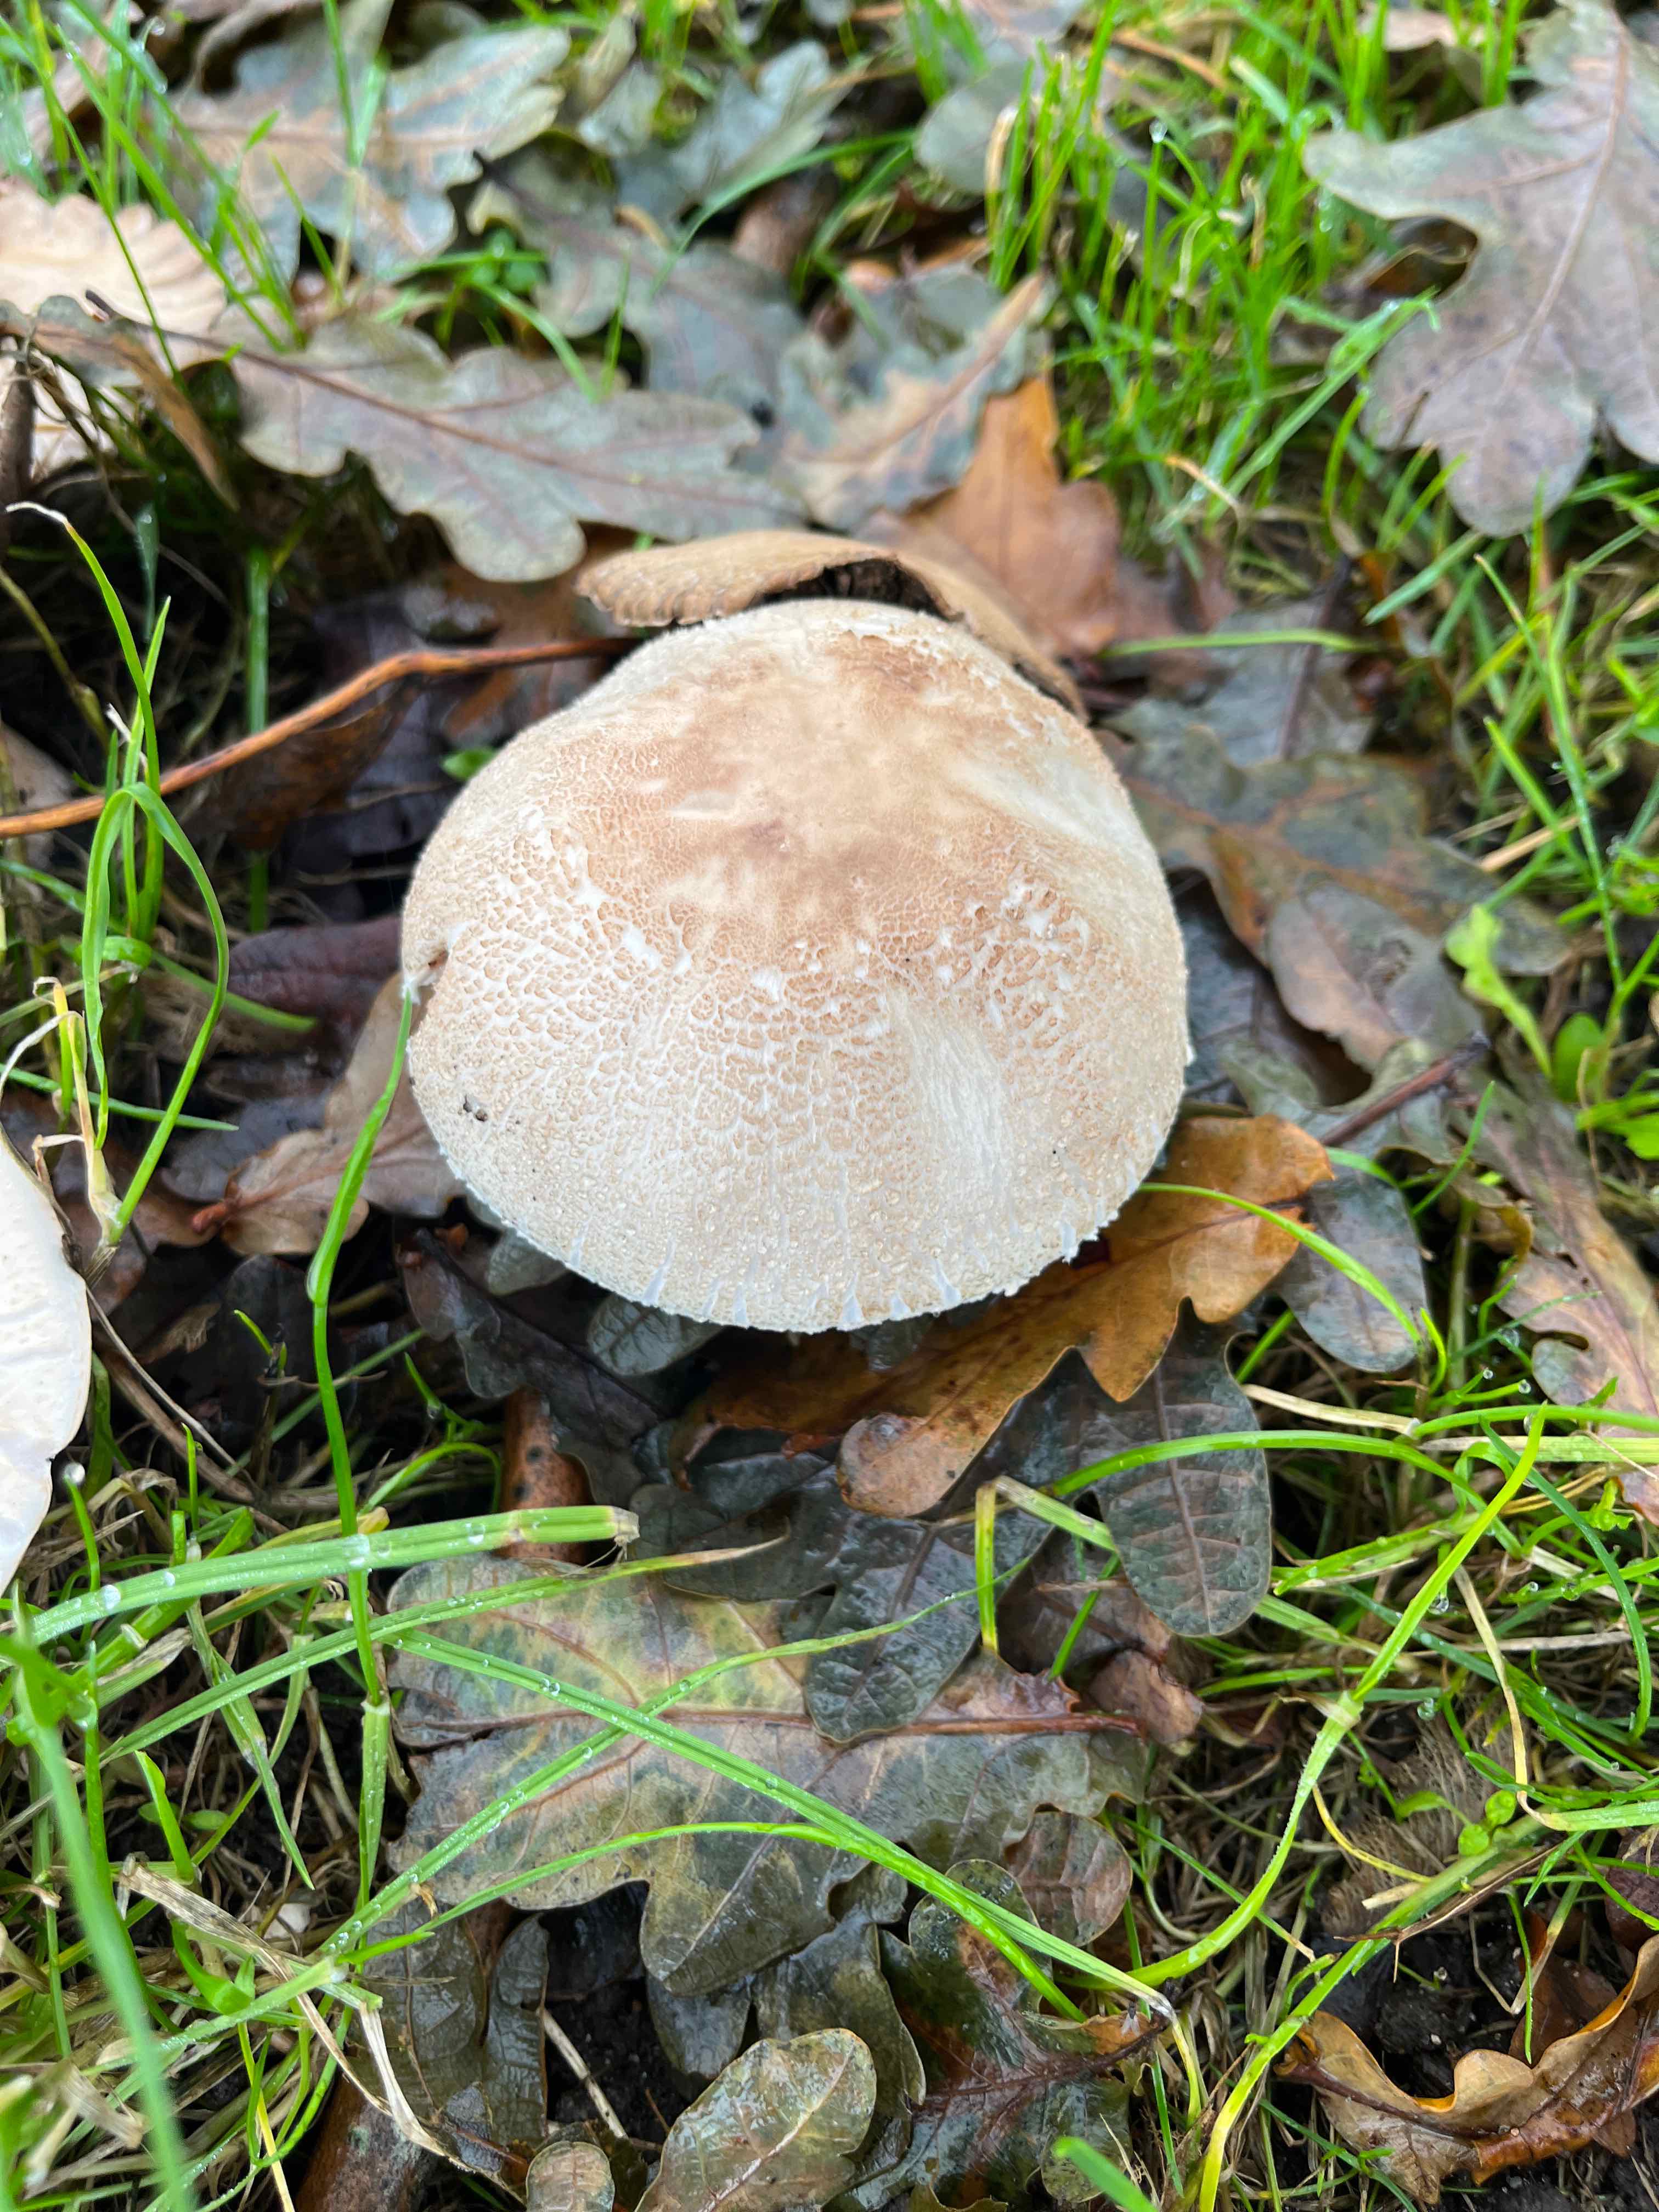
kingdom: Fungi
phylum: Basidiomycota
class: Agaricomycetes
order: Agaricales
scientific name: Agaricales
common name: champignonordenen
